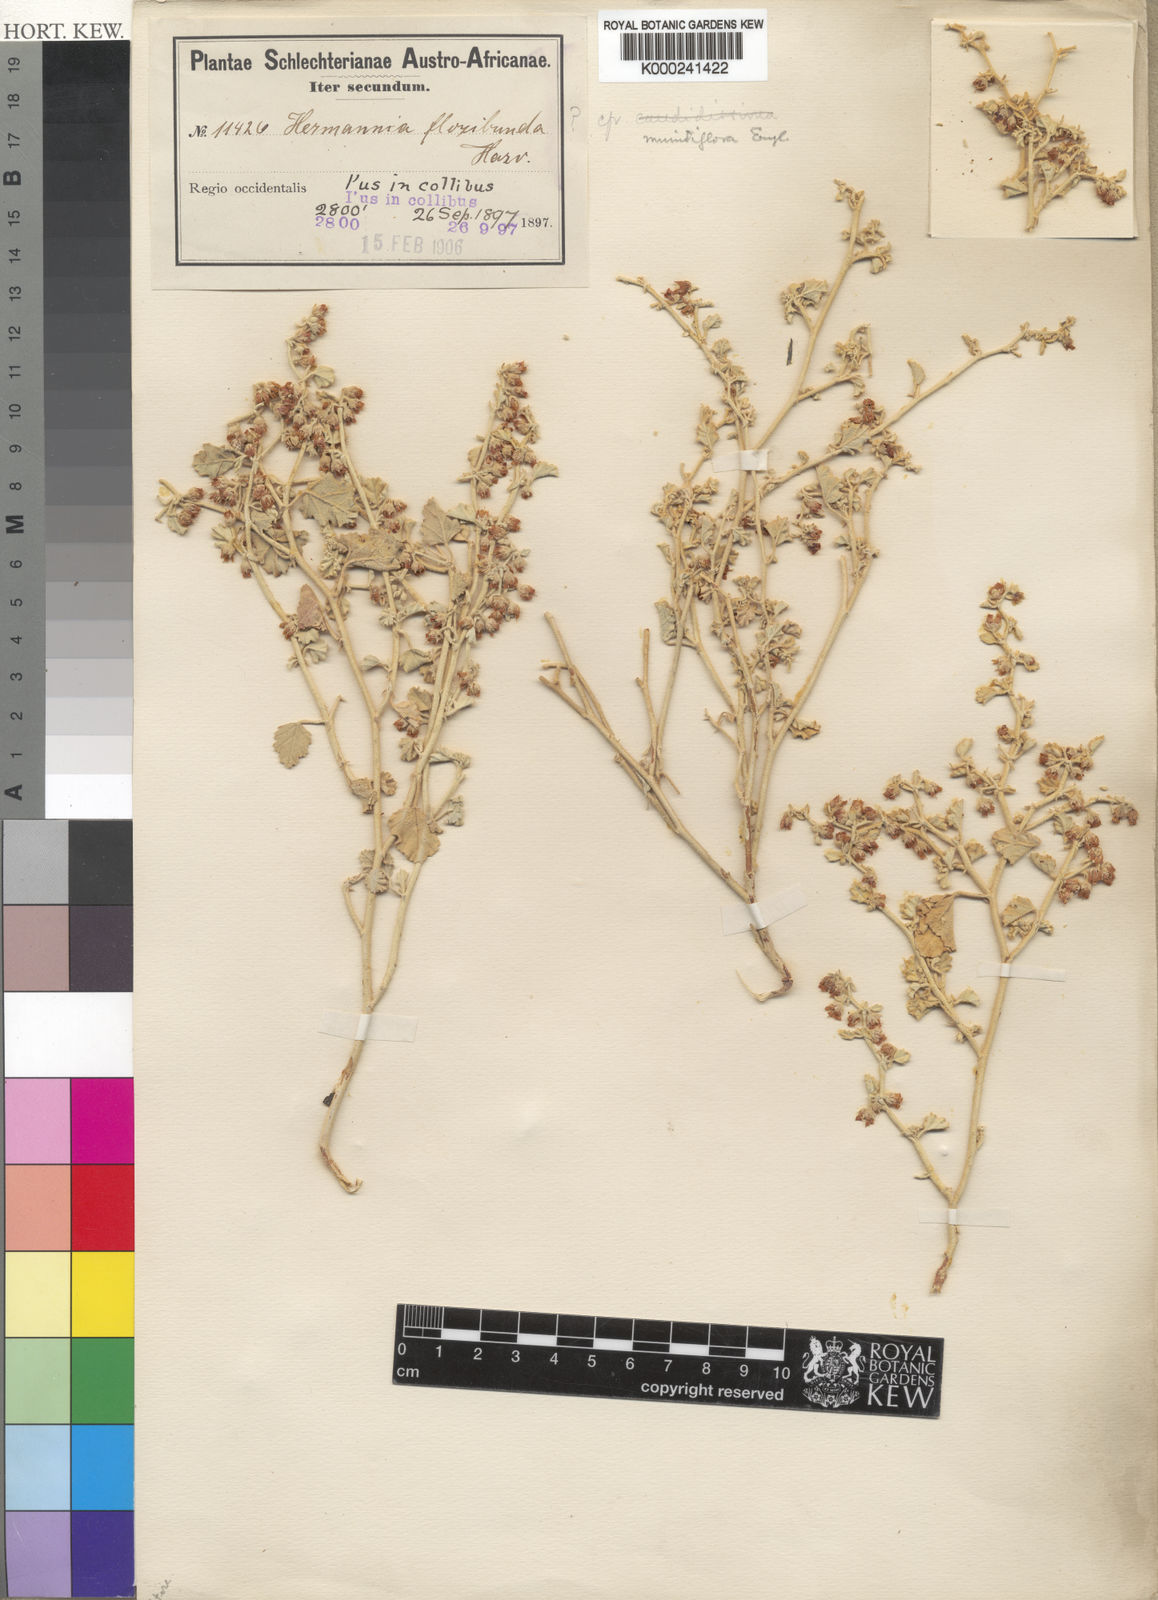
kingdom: Plantae
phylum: Tracheophyta
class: Magnoliopsida
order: Malvales
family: Malvaceae
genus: Hermannia
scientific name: Hermannia minutiflora
